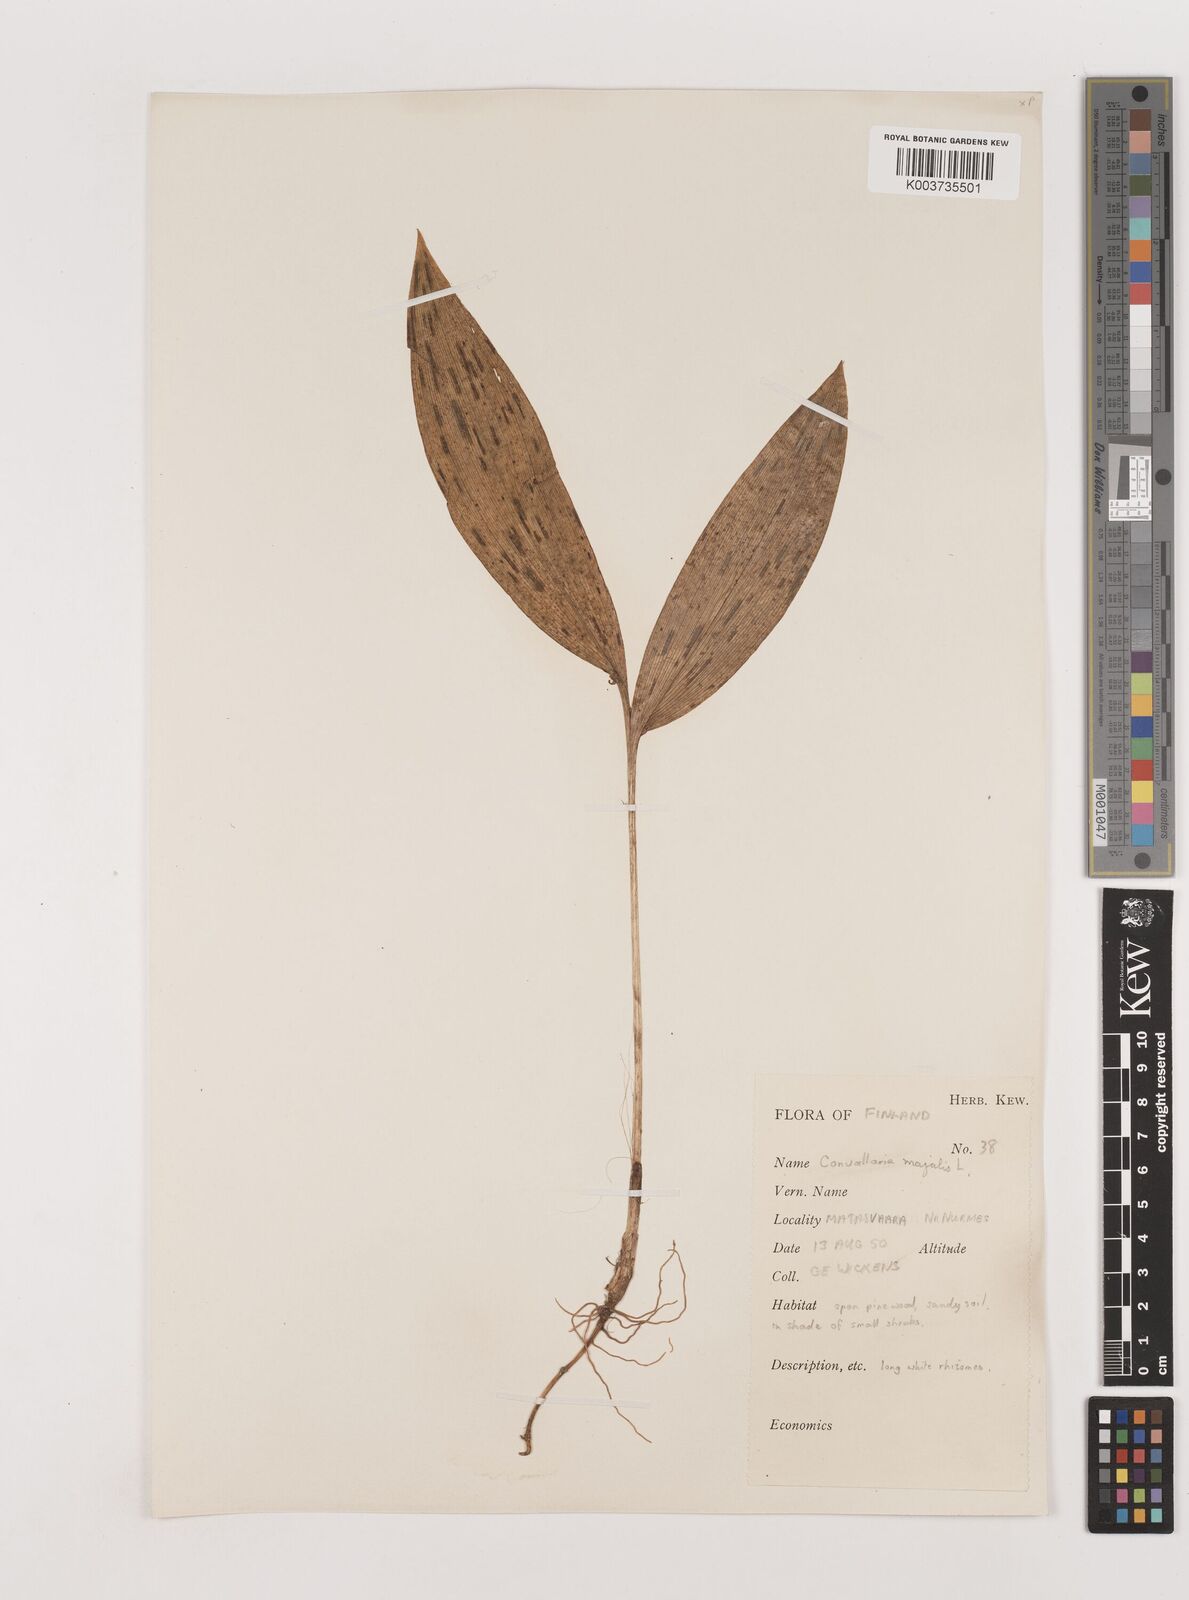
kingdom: Plantae
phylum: Tracheophyta
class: Liliopsida
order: Asparagales
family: Asparagaceae
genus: Convallaria
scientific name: Convallaria majalis
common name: Lily-of-the-valley
